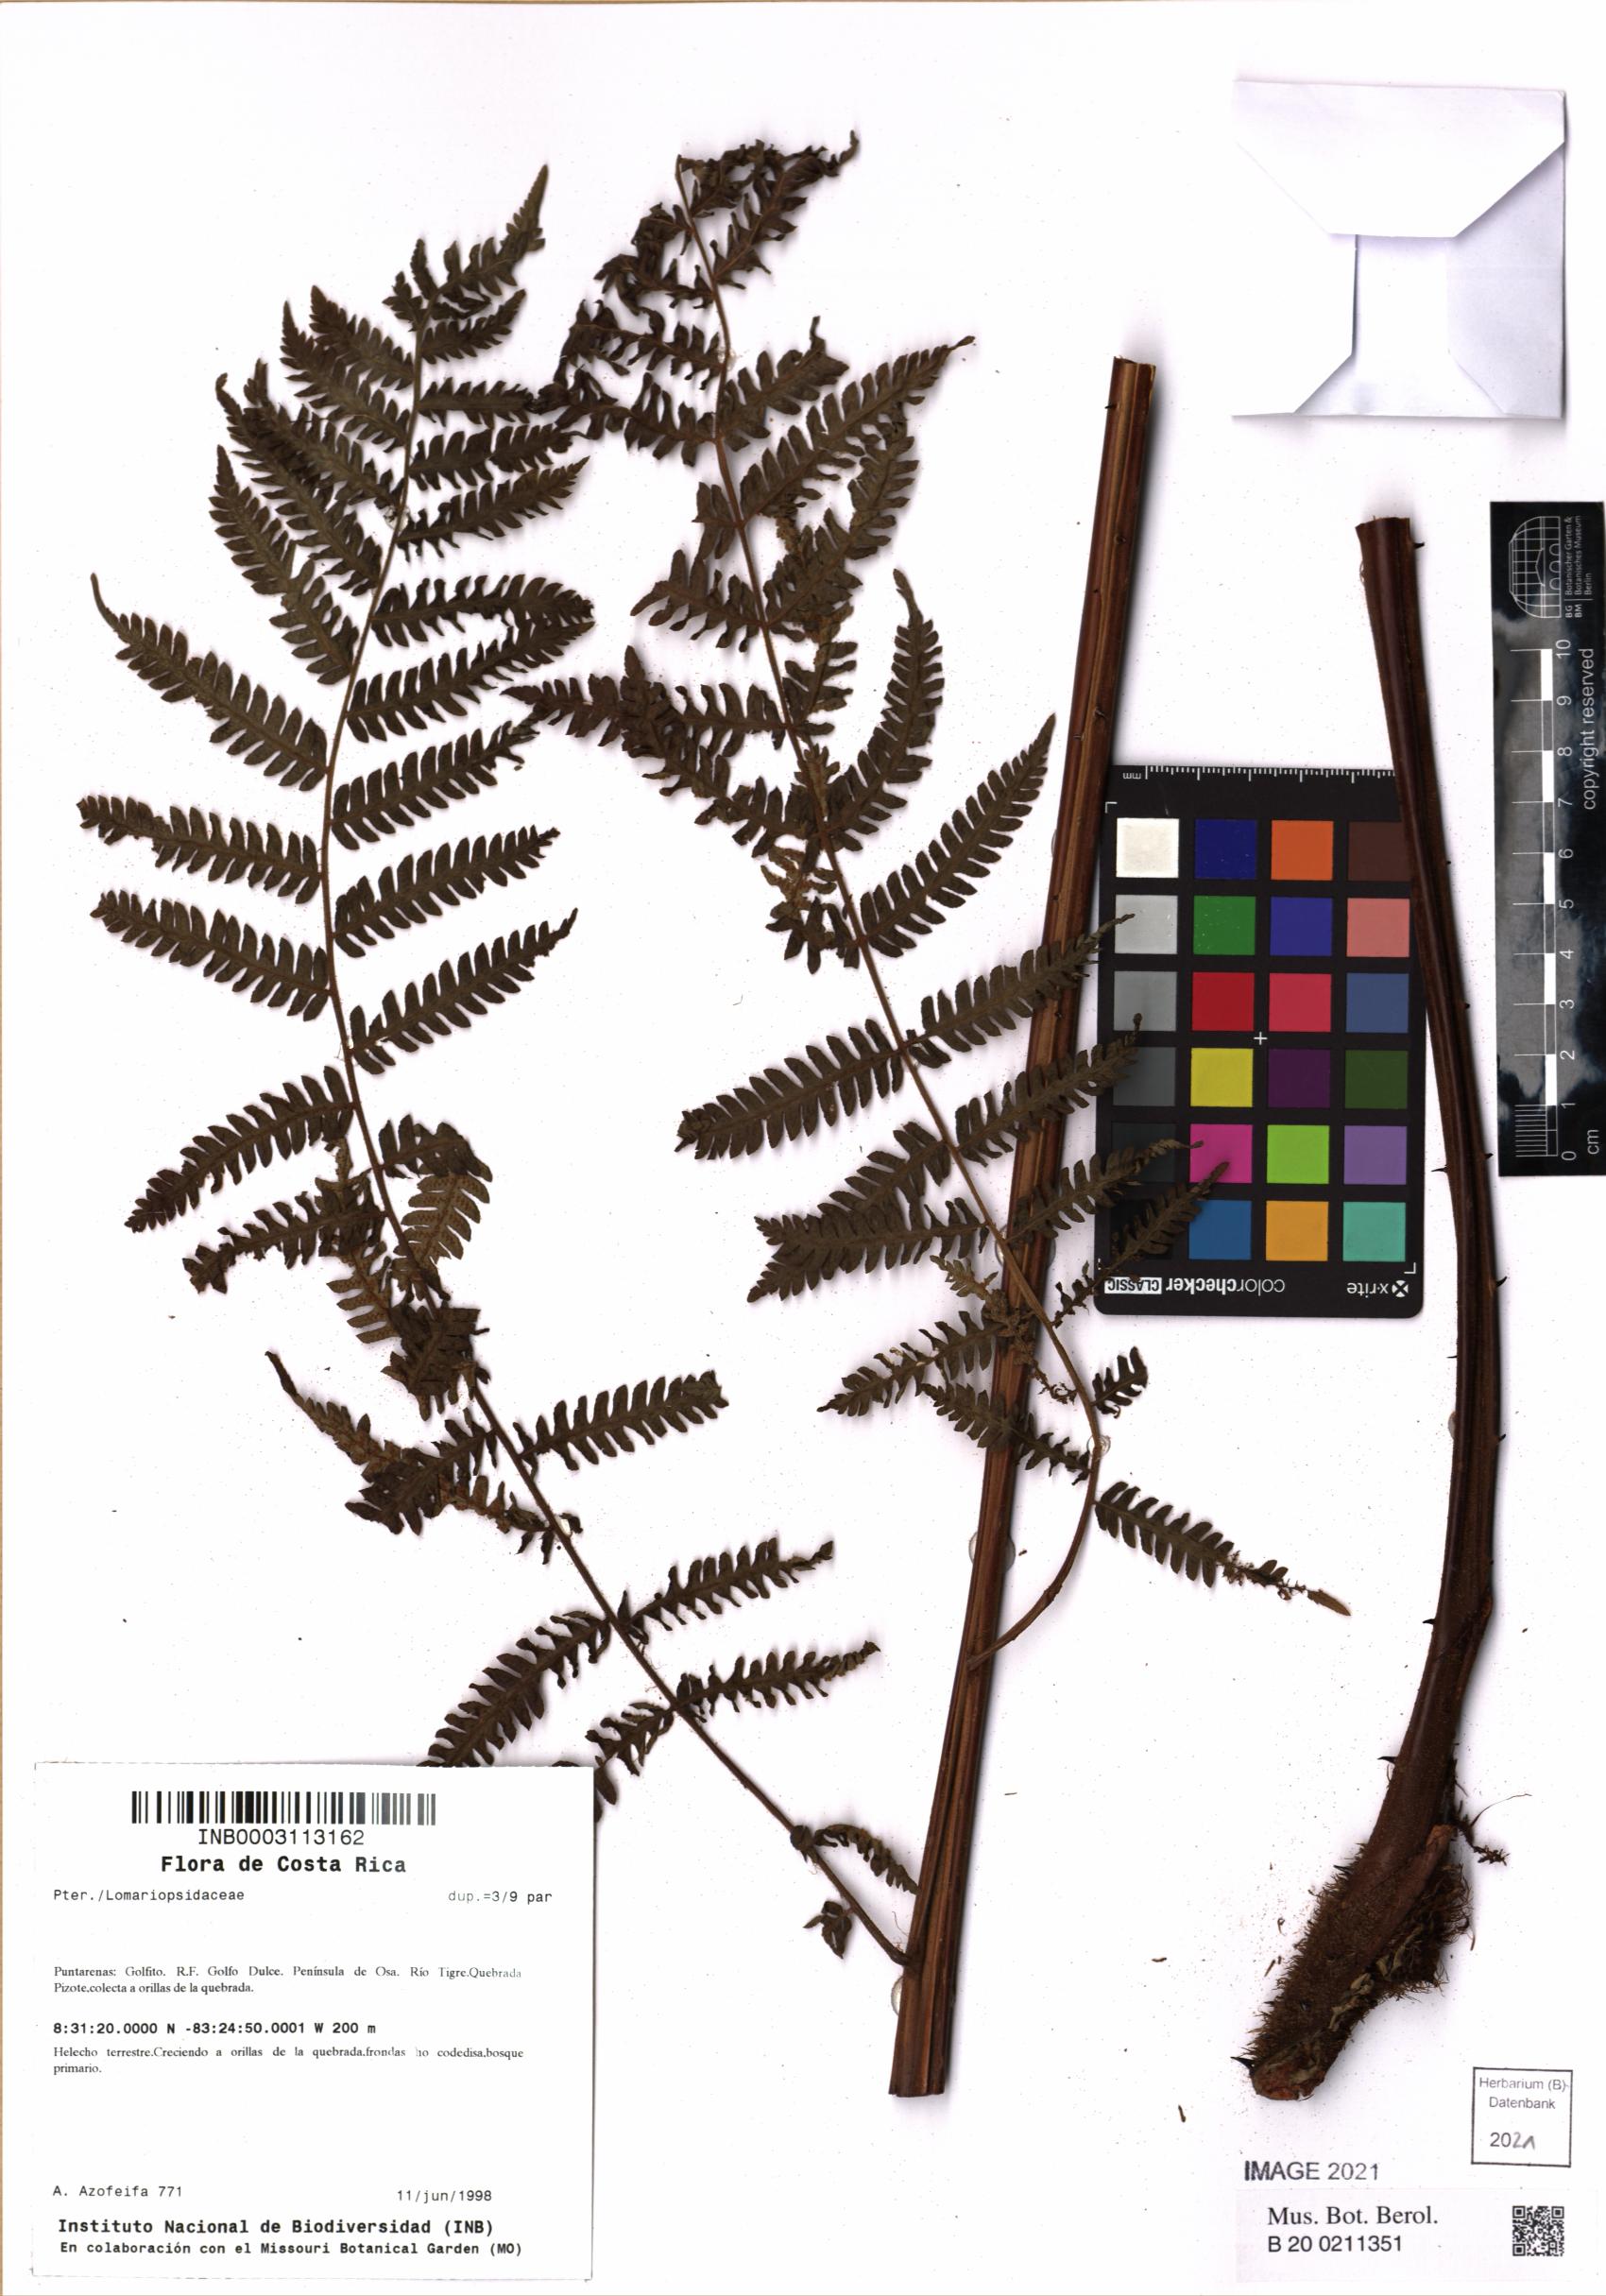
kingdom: Plantae
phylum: Tracheophyta
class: Polypodiopsida
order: Cyatheales
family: Cyatheaceae
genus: Cyathea
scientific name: Cyathea bicrenata
